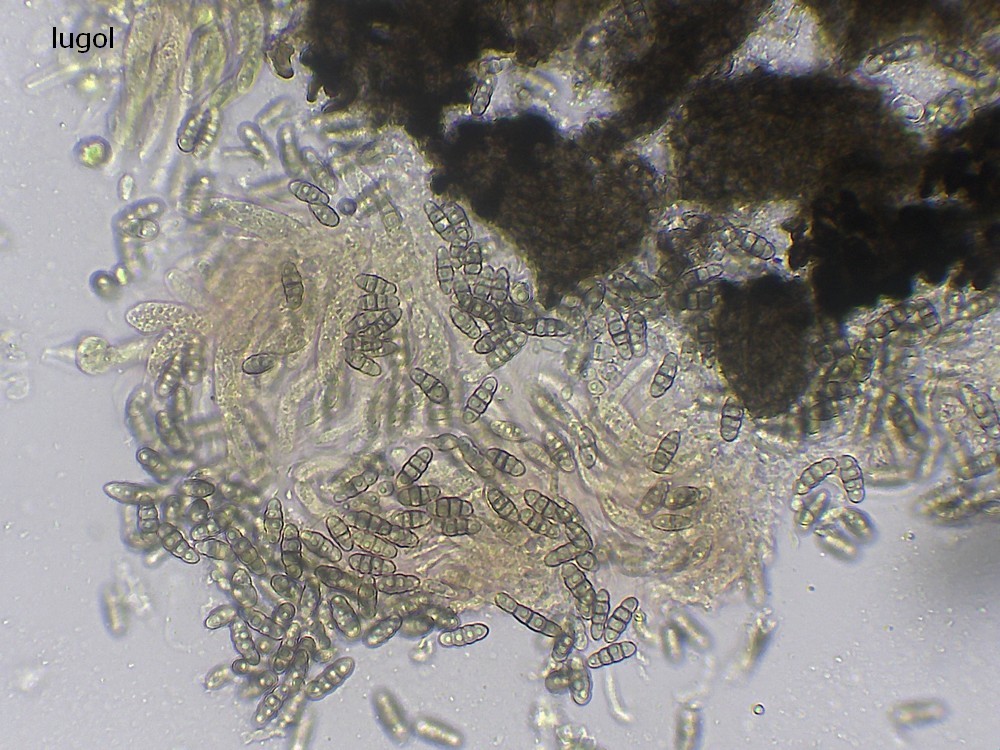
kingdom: Fungi
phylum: Ascomycota
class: Sordariomycetes
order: Sordariales
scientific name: Sordariales
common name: kernesvampordenen
